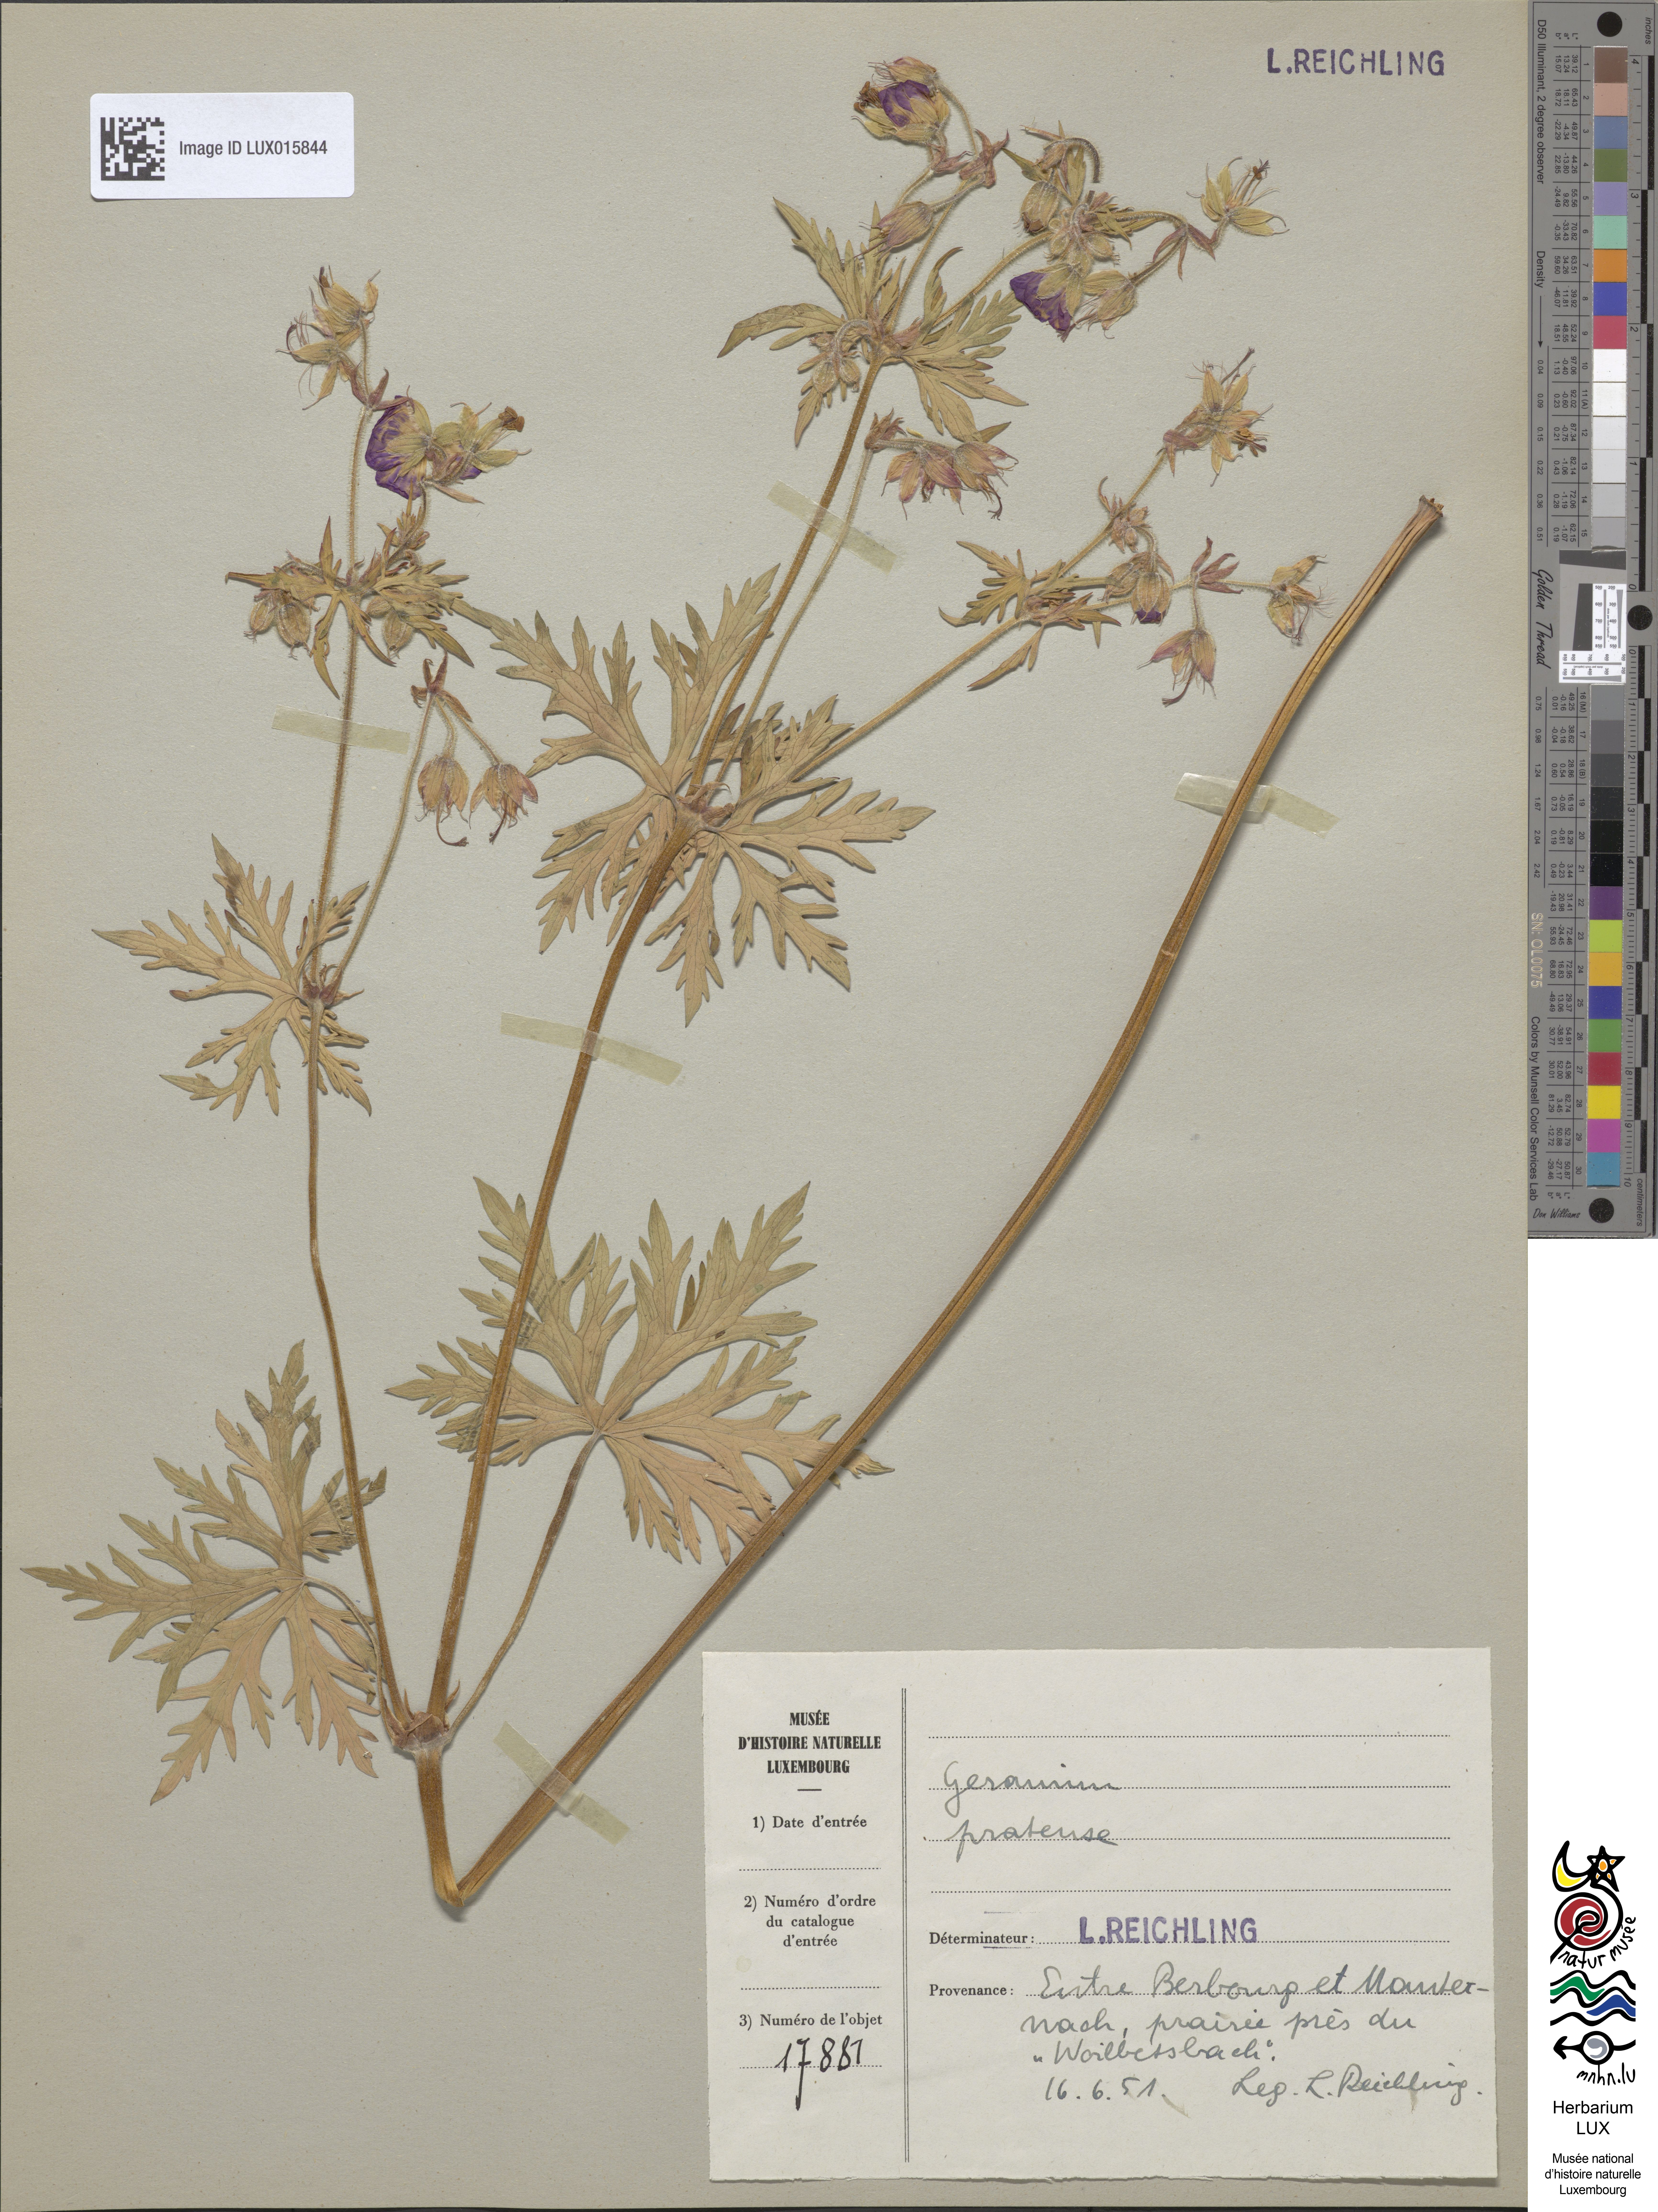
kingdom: Plantae
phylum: Tracheophyta
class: Magnoliopsida
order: Geraniales
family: Geraniaceae
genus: Geranium
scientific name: Geranium pratense
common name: Meadow crane's-bill
